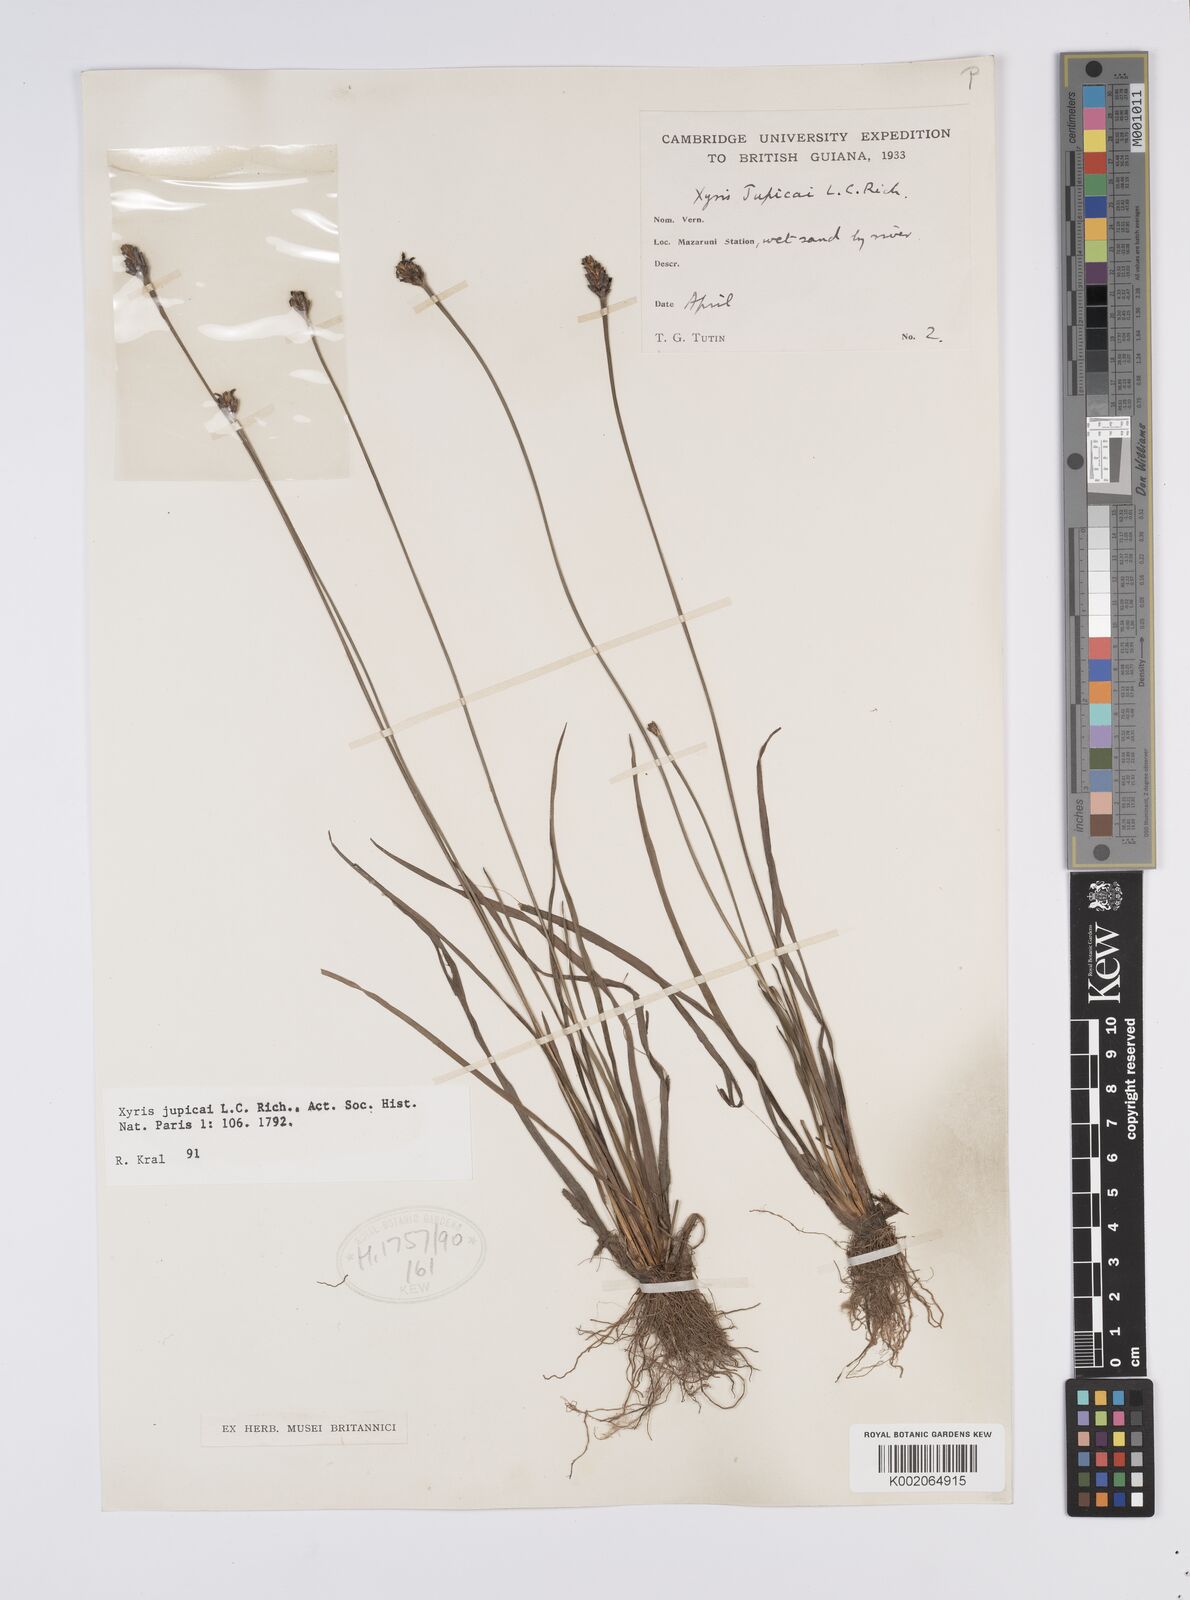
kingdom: Plantae
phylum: Tracheophyta
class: Liliopsida
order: Poales
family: Xyridaceae
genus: Xyris
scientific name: Xyris jupicai
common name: Richard's yelloweyed grass
